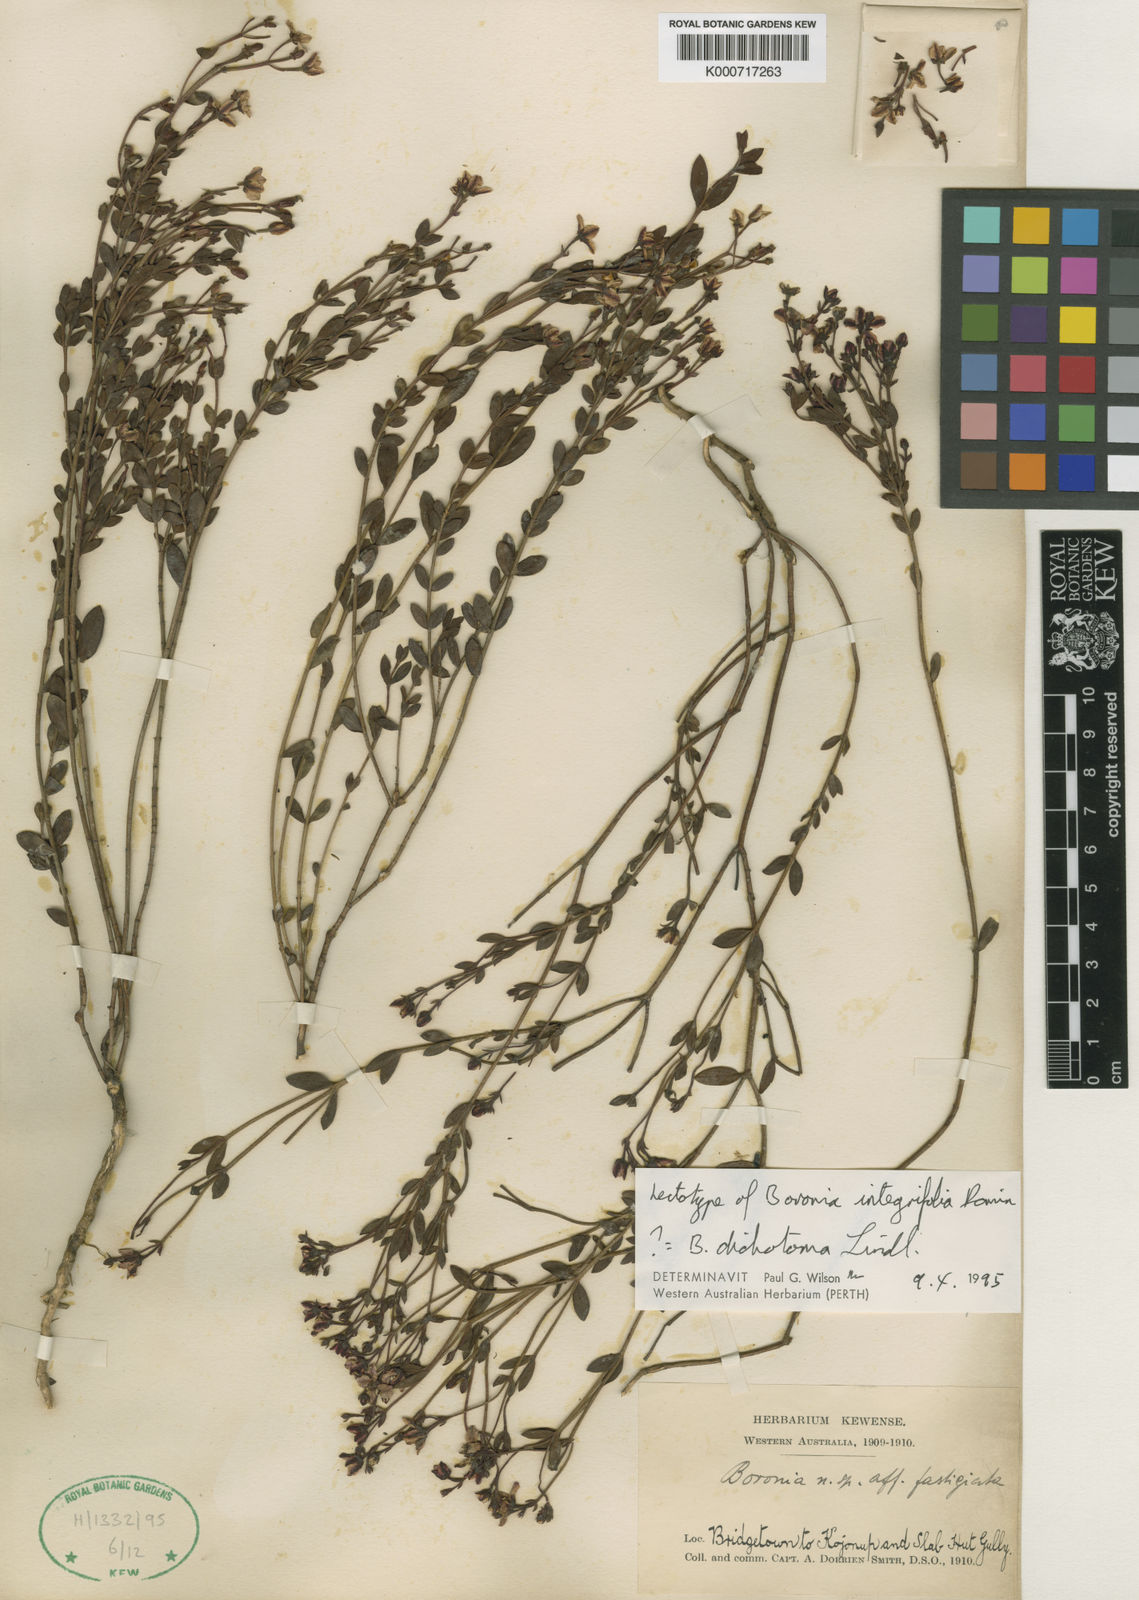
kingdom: Plantae
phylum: Tracheophyta
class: Magnoliopsida
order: Sapindales
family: Rutaceae
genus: Boronia
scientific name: Boronia fastigiata
